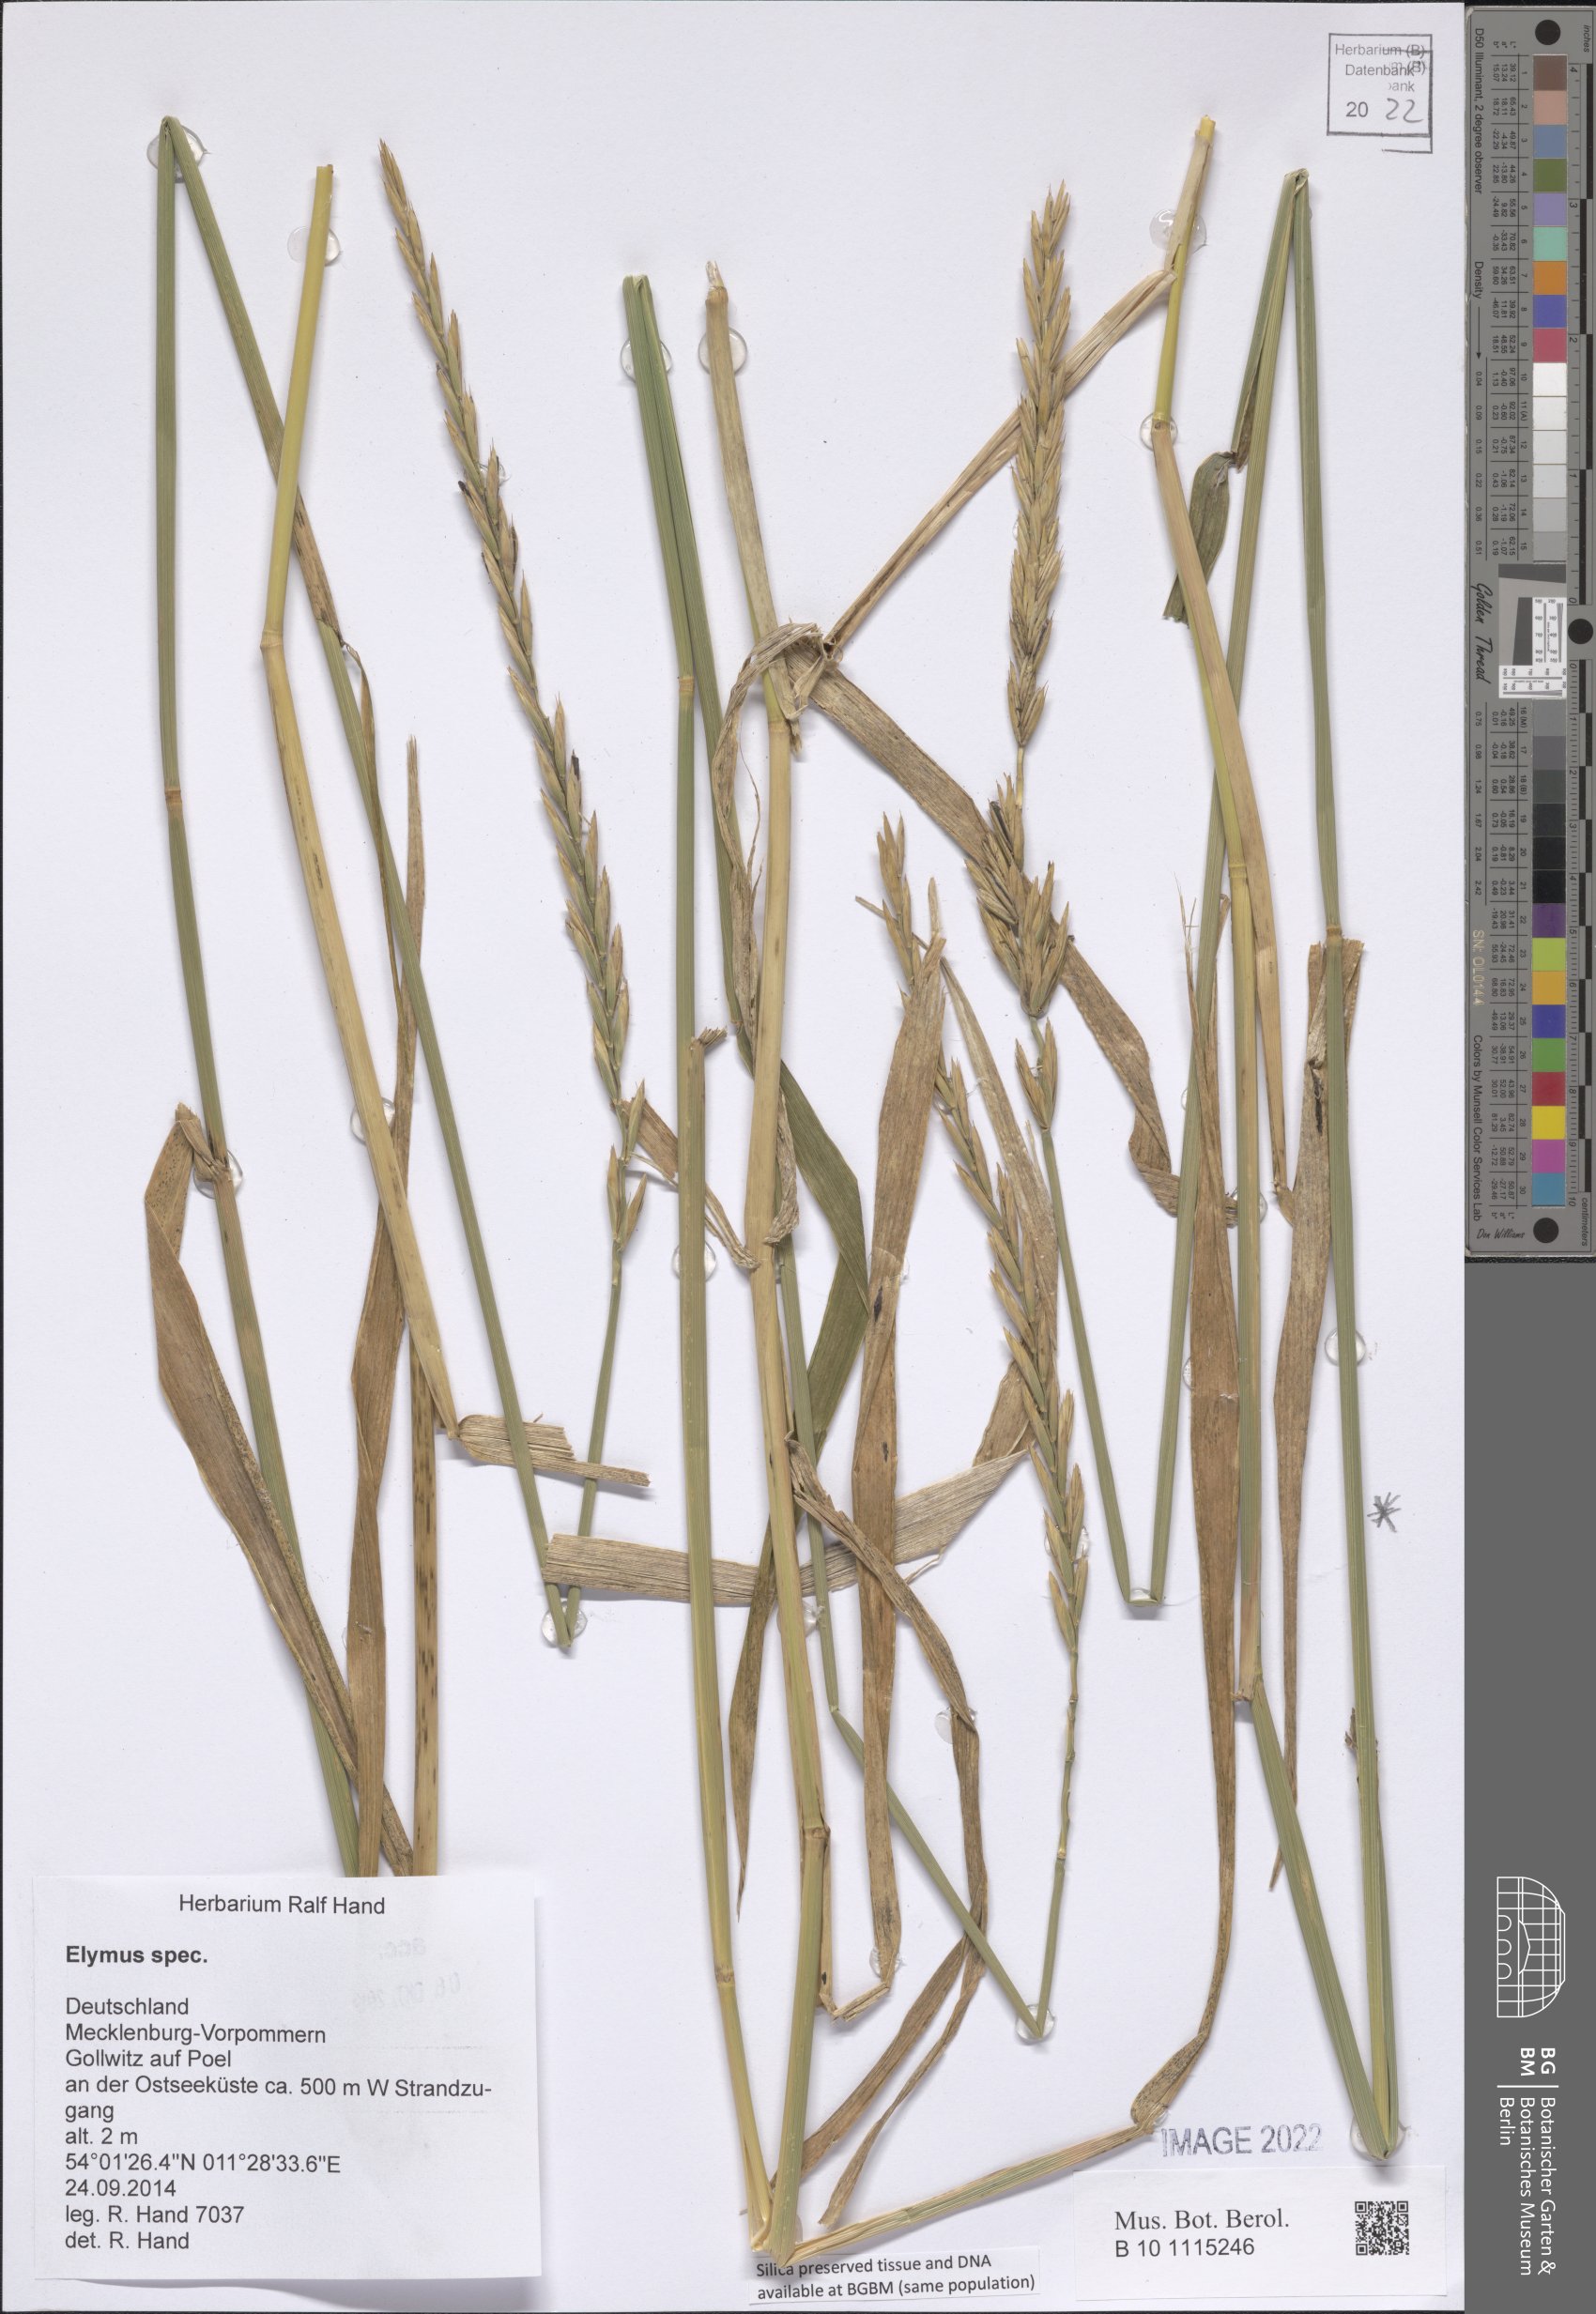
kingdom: Plantae
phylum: Tracheophyta
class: Liliopsida
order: Poales
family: Poaceae
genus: Elymus
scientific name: Elymus
